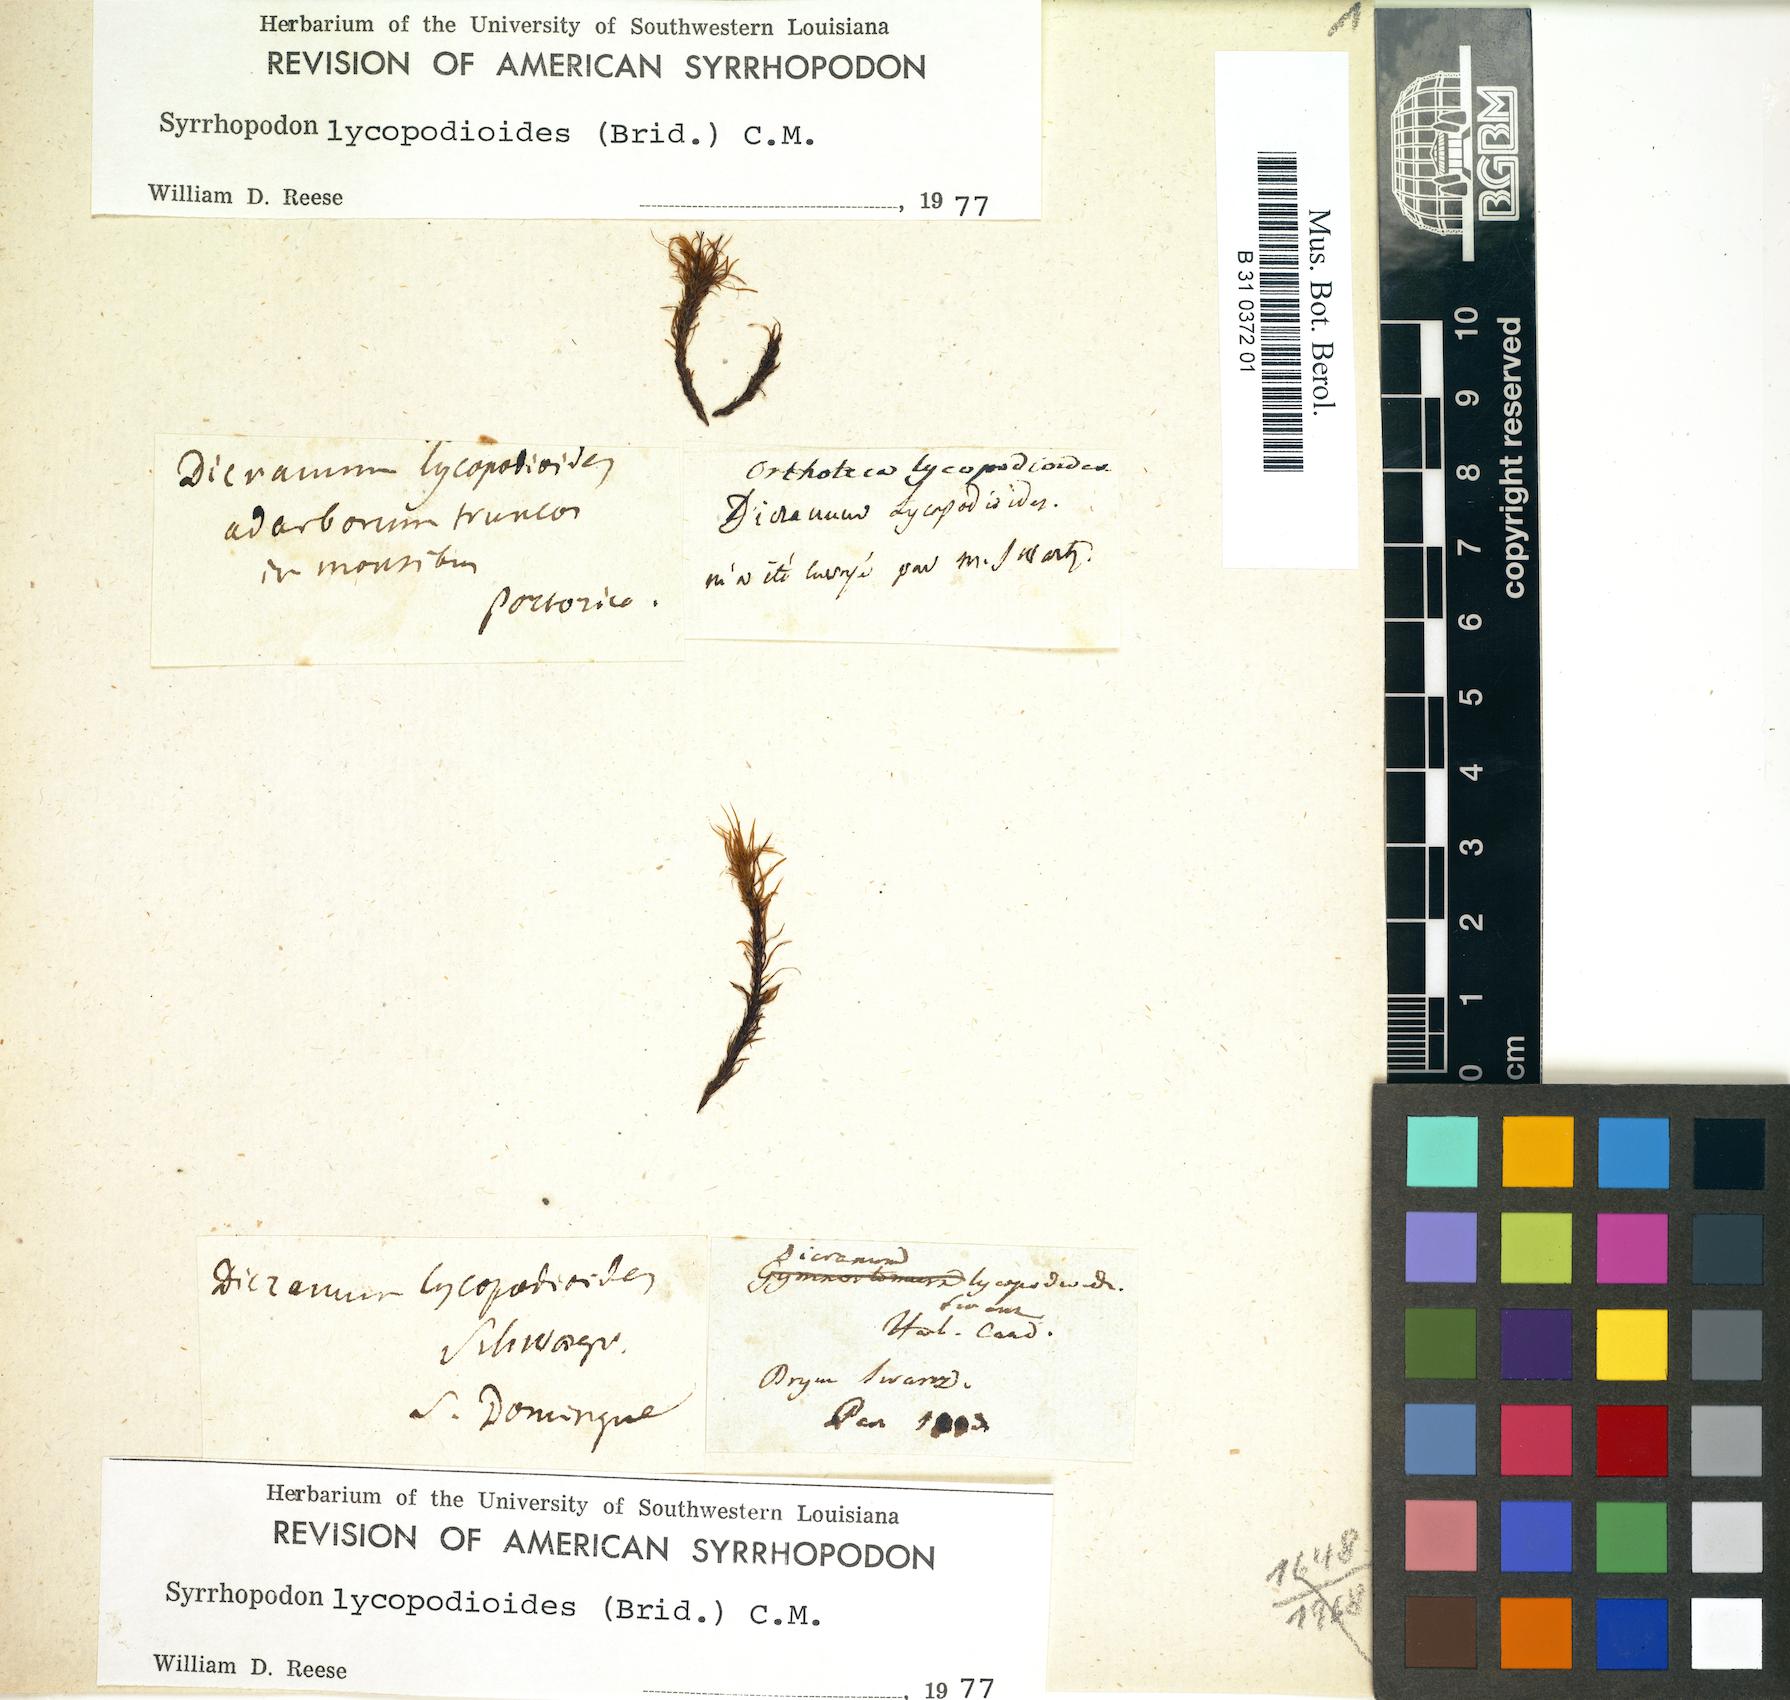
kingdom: Plantae
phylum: Bryophyta
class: Bryopsida
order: Dicranales
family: Calymperaceae
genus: Syrrhopodon
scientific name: Syrrhopodon lycopodioides
